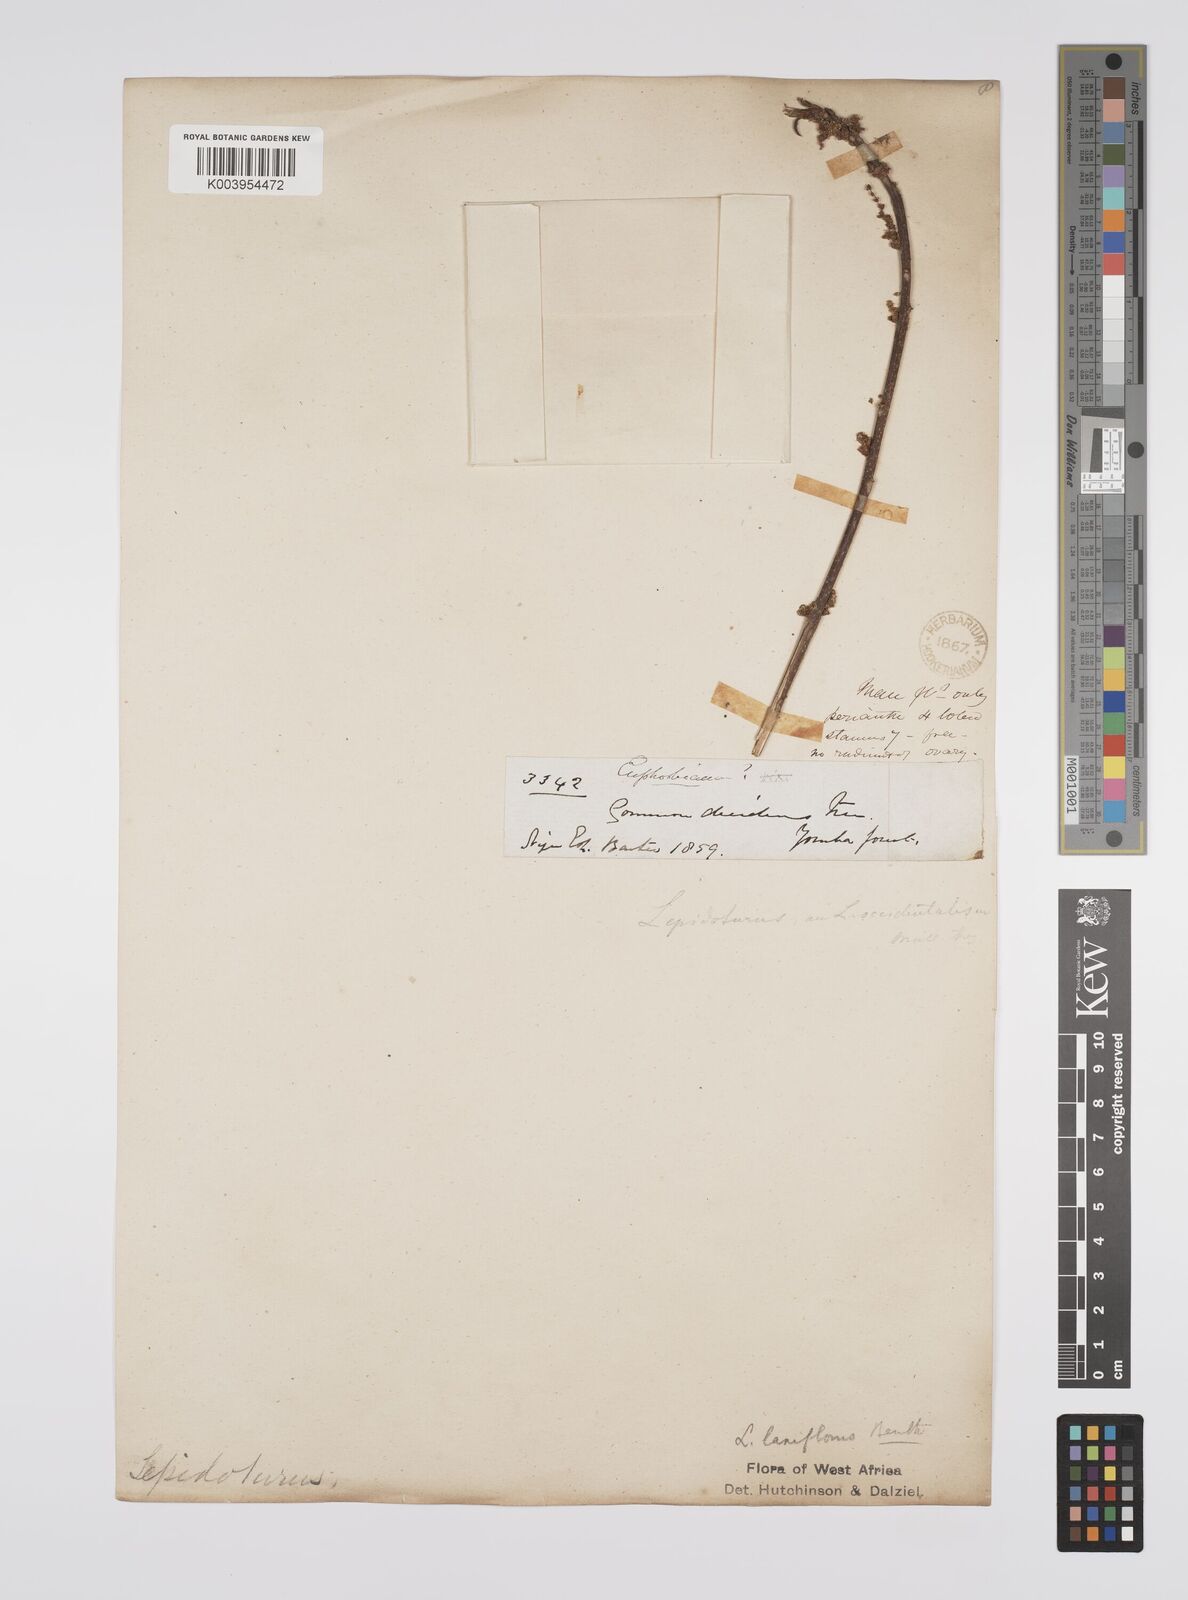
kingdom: Plantae
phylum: Tracheophyta
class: Magnoliopsida
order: Malpighiales
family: Euphorbiaceae
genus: Alchornea
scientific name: Alchornea laxiflora
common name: Lowveld bead-string
